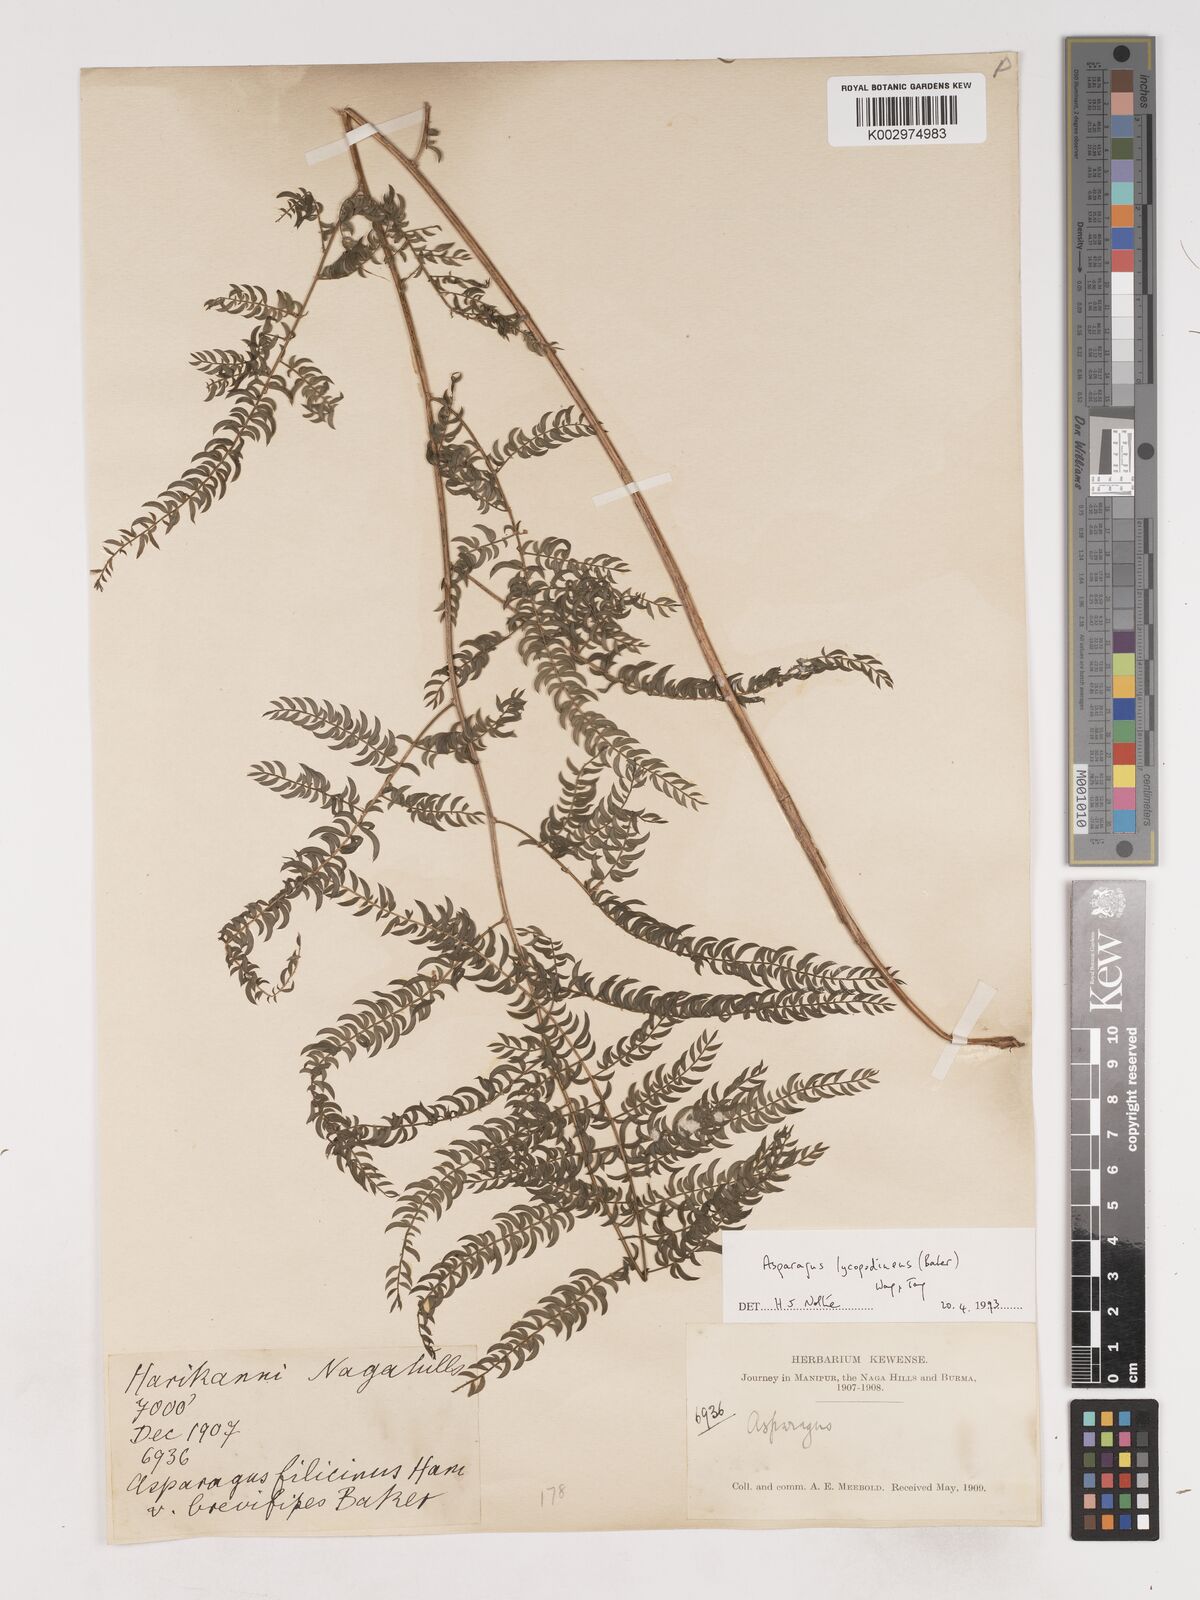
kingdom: Plantae
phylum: Tracheophyta
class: Liliopsida
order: Asparagales
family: Asparagaceae
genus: Asparagus
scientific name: Asparagus filicinus
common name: Fern asparagus
